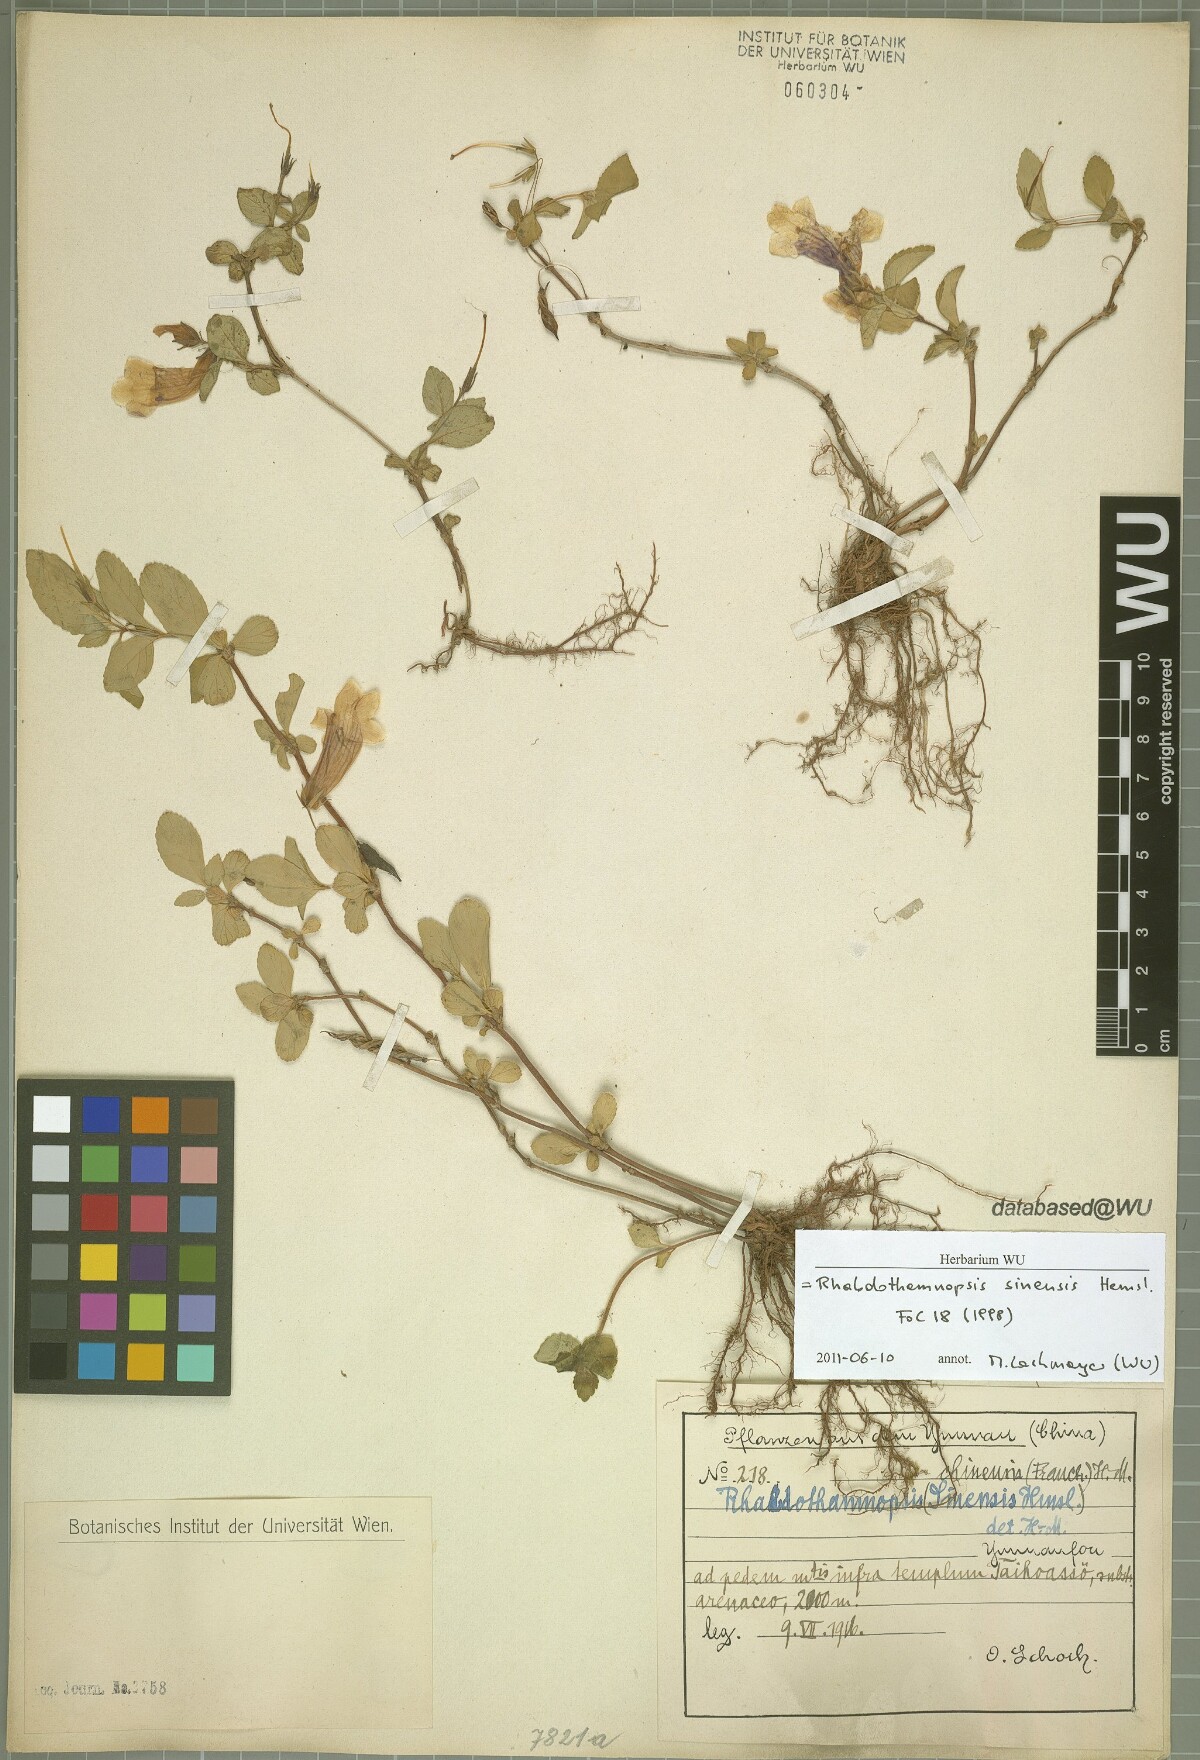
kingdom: Plantae
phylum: Tracheophyta
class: Magnoliopsida
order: Lamiales
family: Gesneriaceae
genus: Rhabdothamnopsis
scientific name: Rhabdothamnopsis sinensis
